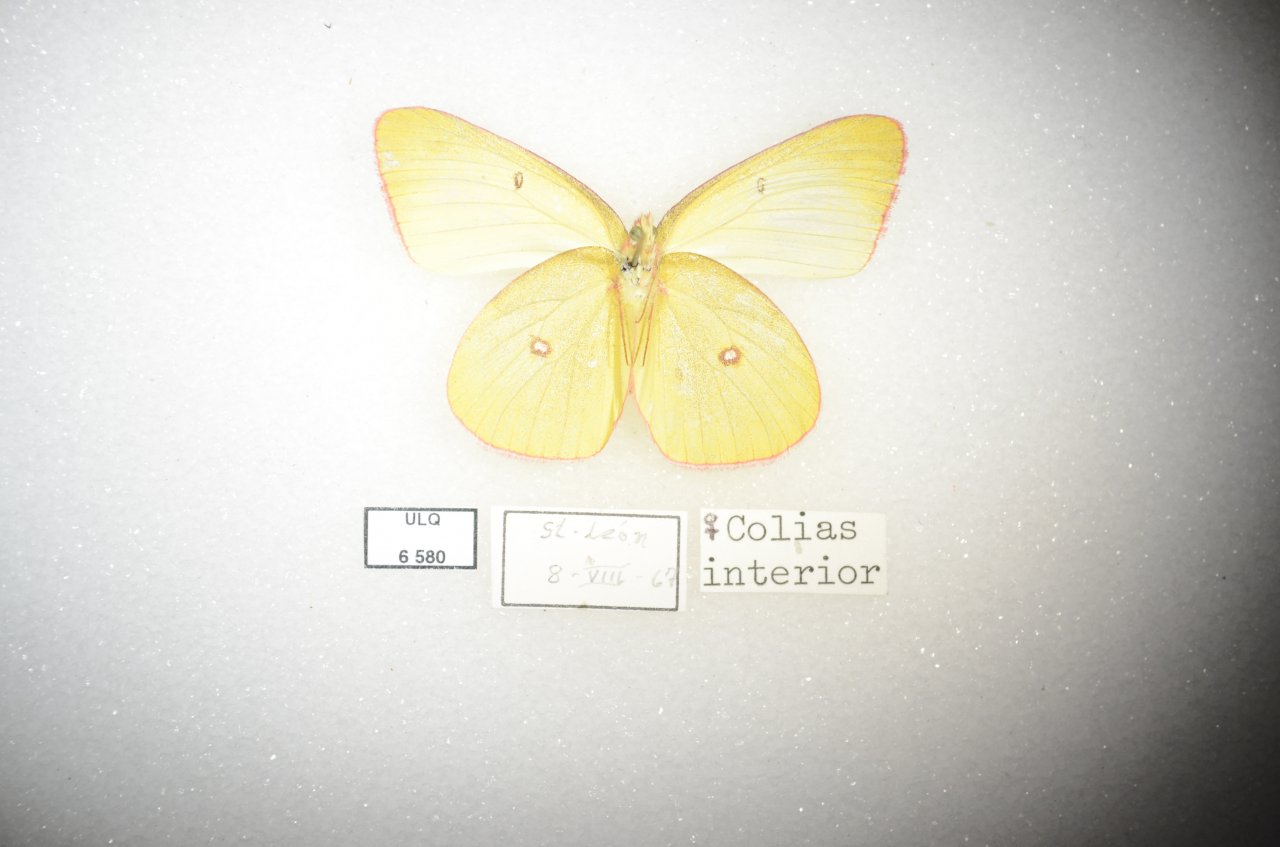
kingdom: Animalia
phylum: Arthropoda
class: Insecta
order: Lepidoptera
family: Pieridae
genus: Colias
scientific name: Colias interior
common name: Pink-edged Sulphur
